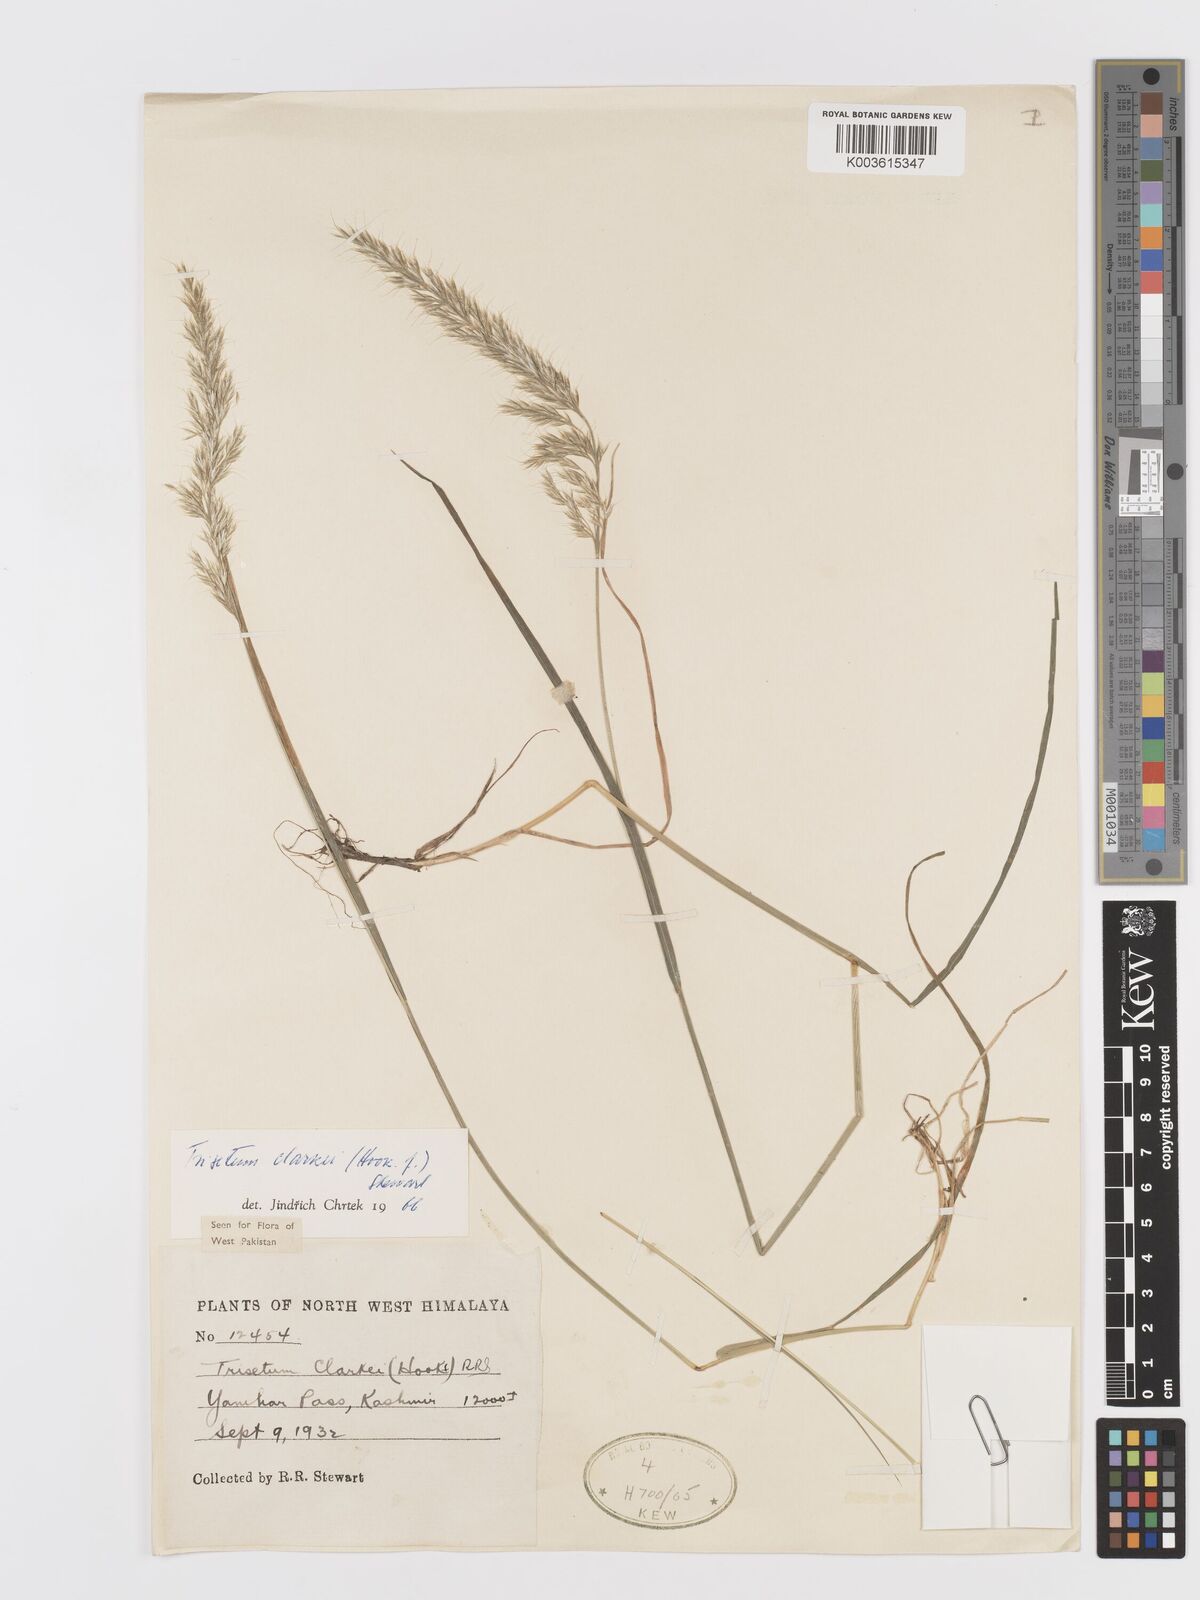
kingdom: Plantae
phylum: Tracheophyta
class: Liliopsida
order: Poales
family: Poaceae
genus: Trisetum
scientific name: Trisetum clarkei
